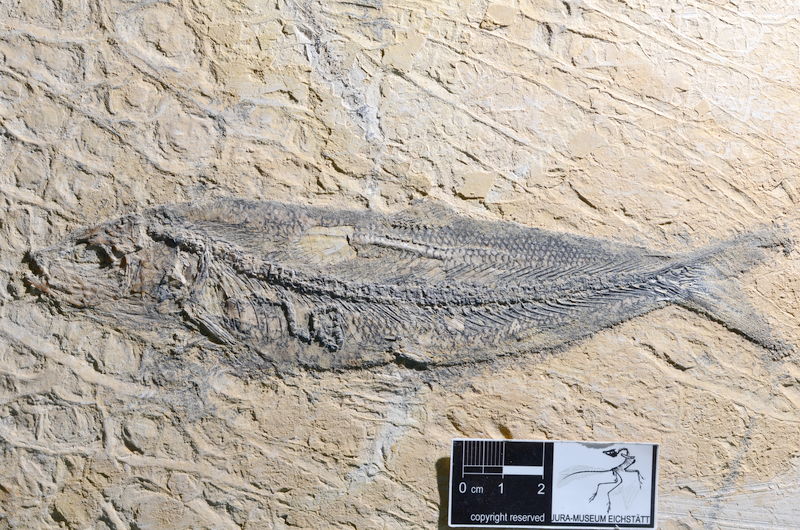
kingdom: Animalia
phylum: Chordata
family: Ascalaboidae
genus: Tharsis
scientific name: Tharsis dubius
